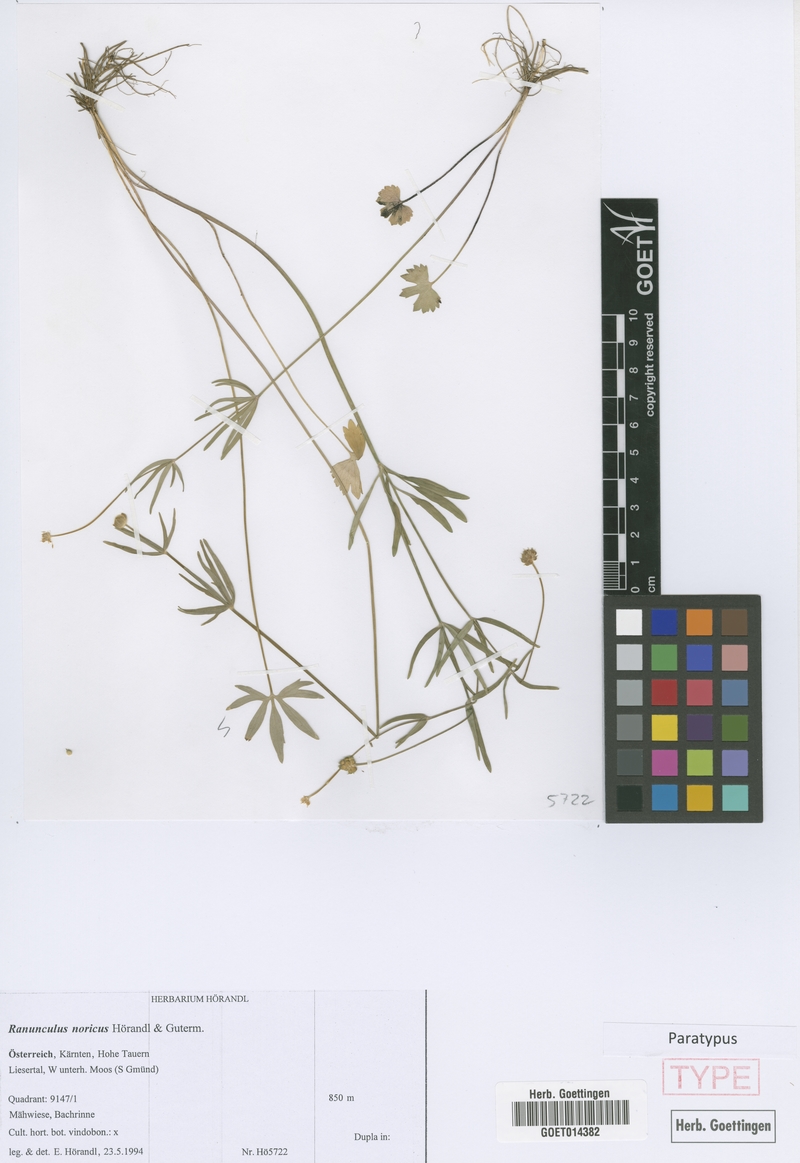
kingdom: Plantae
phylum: Tracheophyta
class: Magnoliopsida
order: Ranunculales
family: Ranunculaceae
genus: Ranunculus
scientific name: Ranunculus noricus
